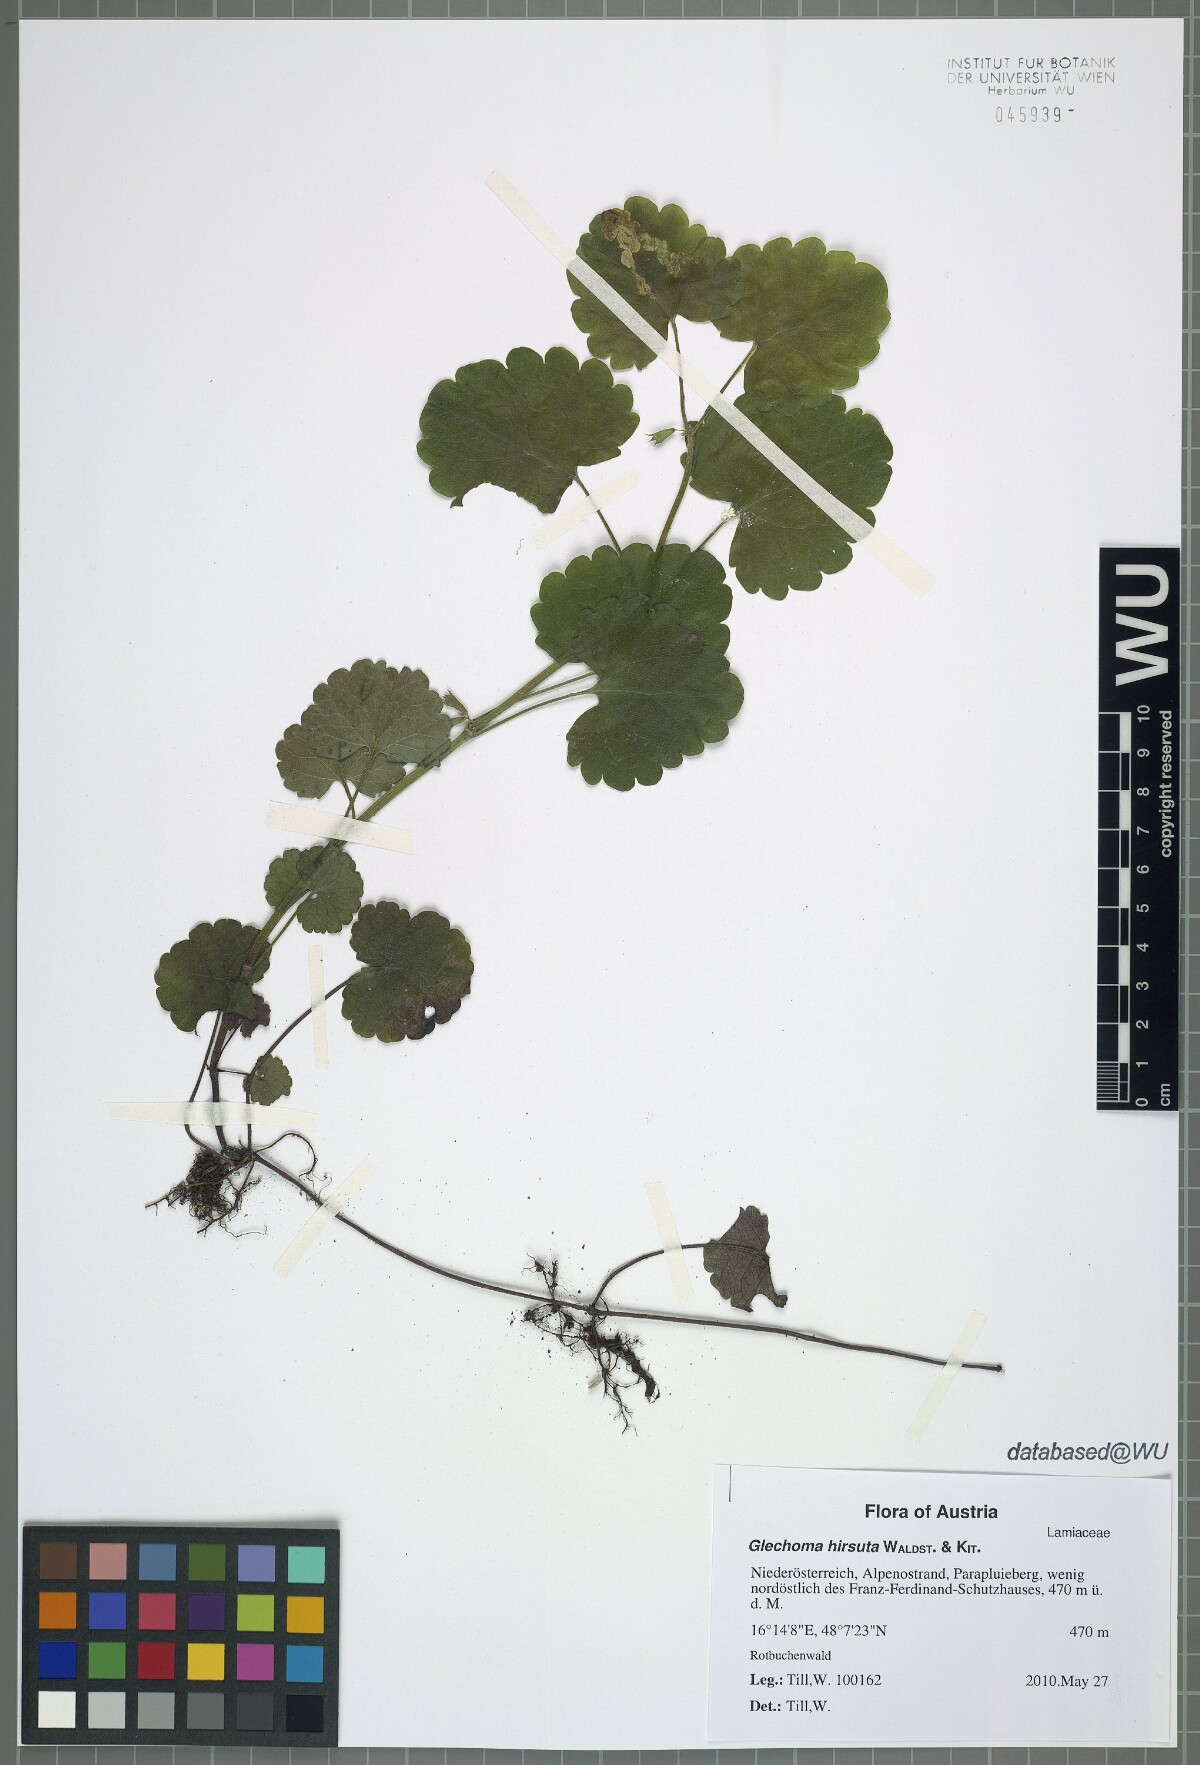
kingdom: Plantae
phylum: Tracheophyta
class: Magnoliopsida
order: Lamiales
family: Lamiaceae
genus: Glechoma
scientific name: Glechoma hirsuta
